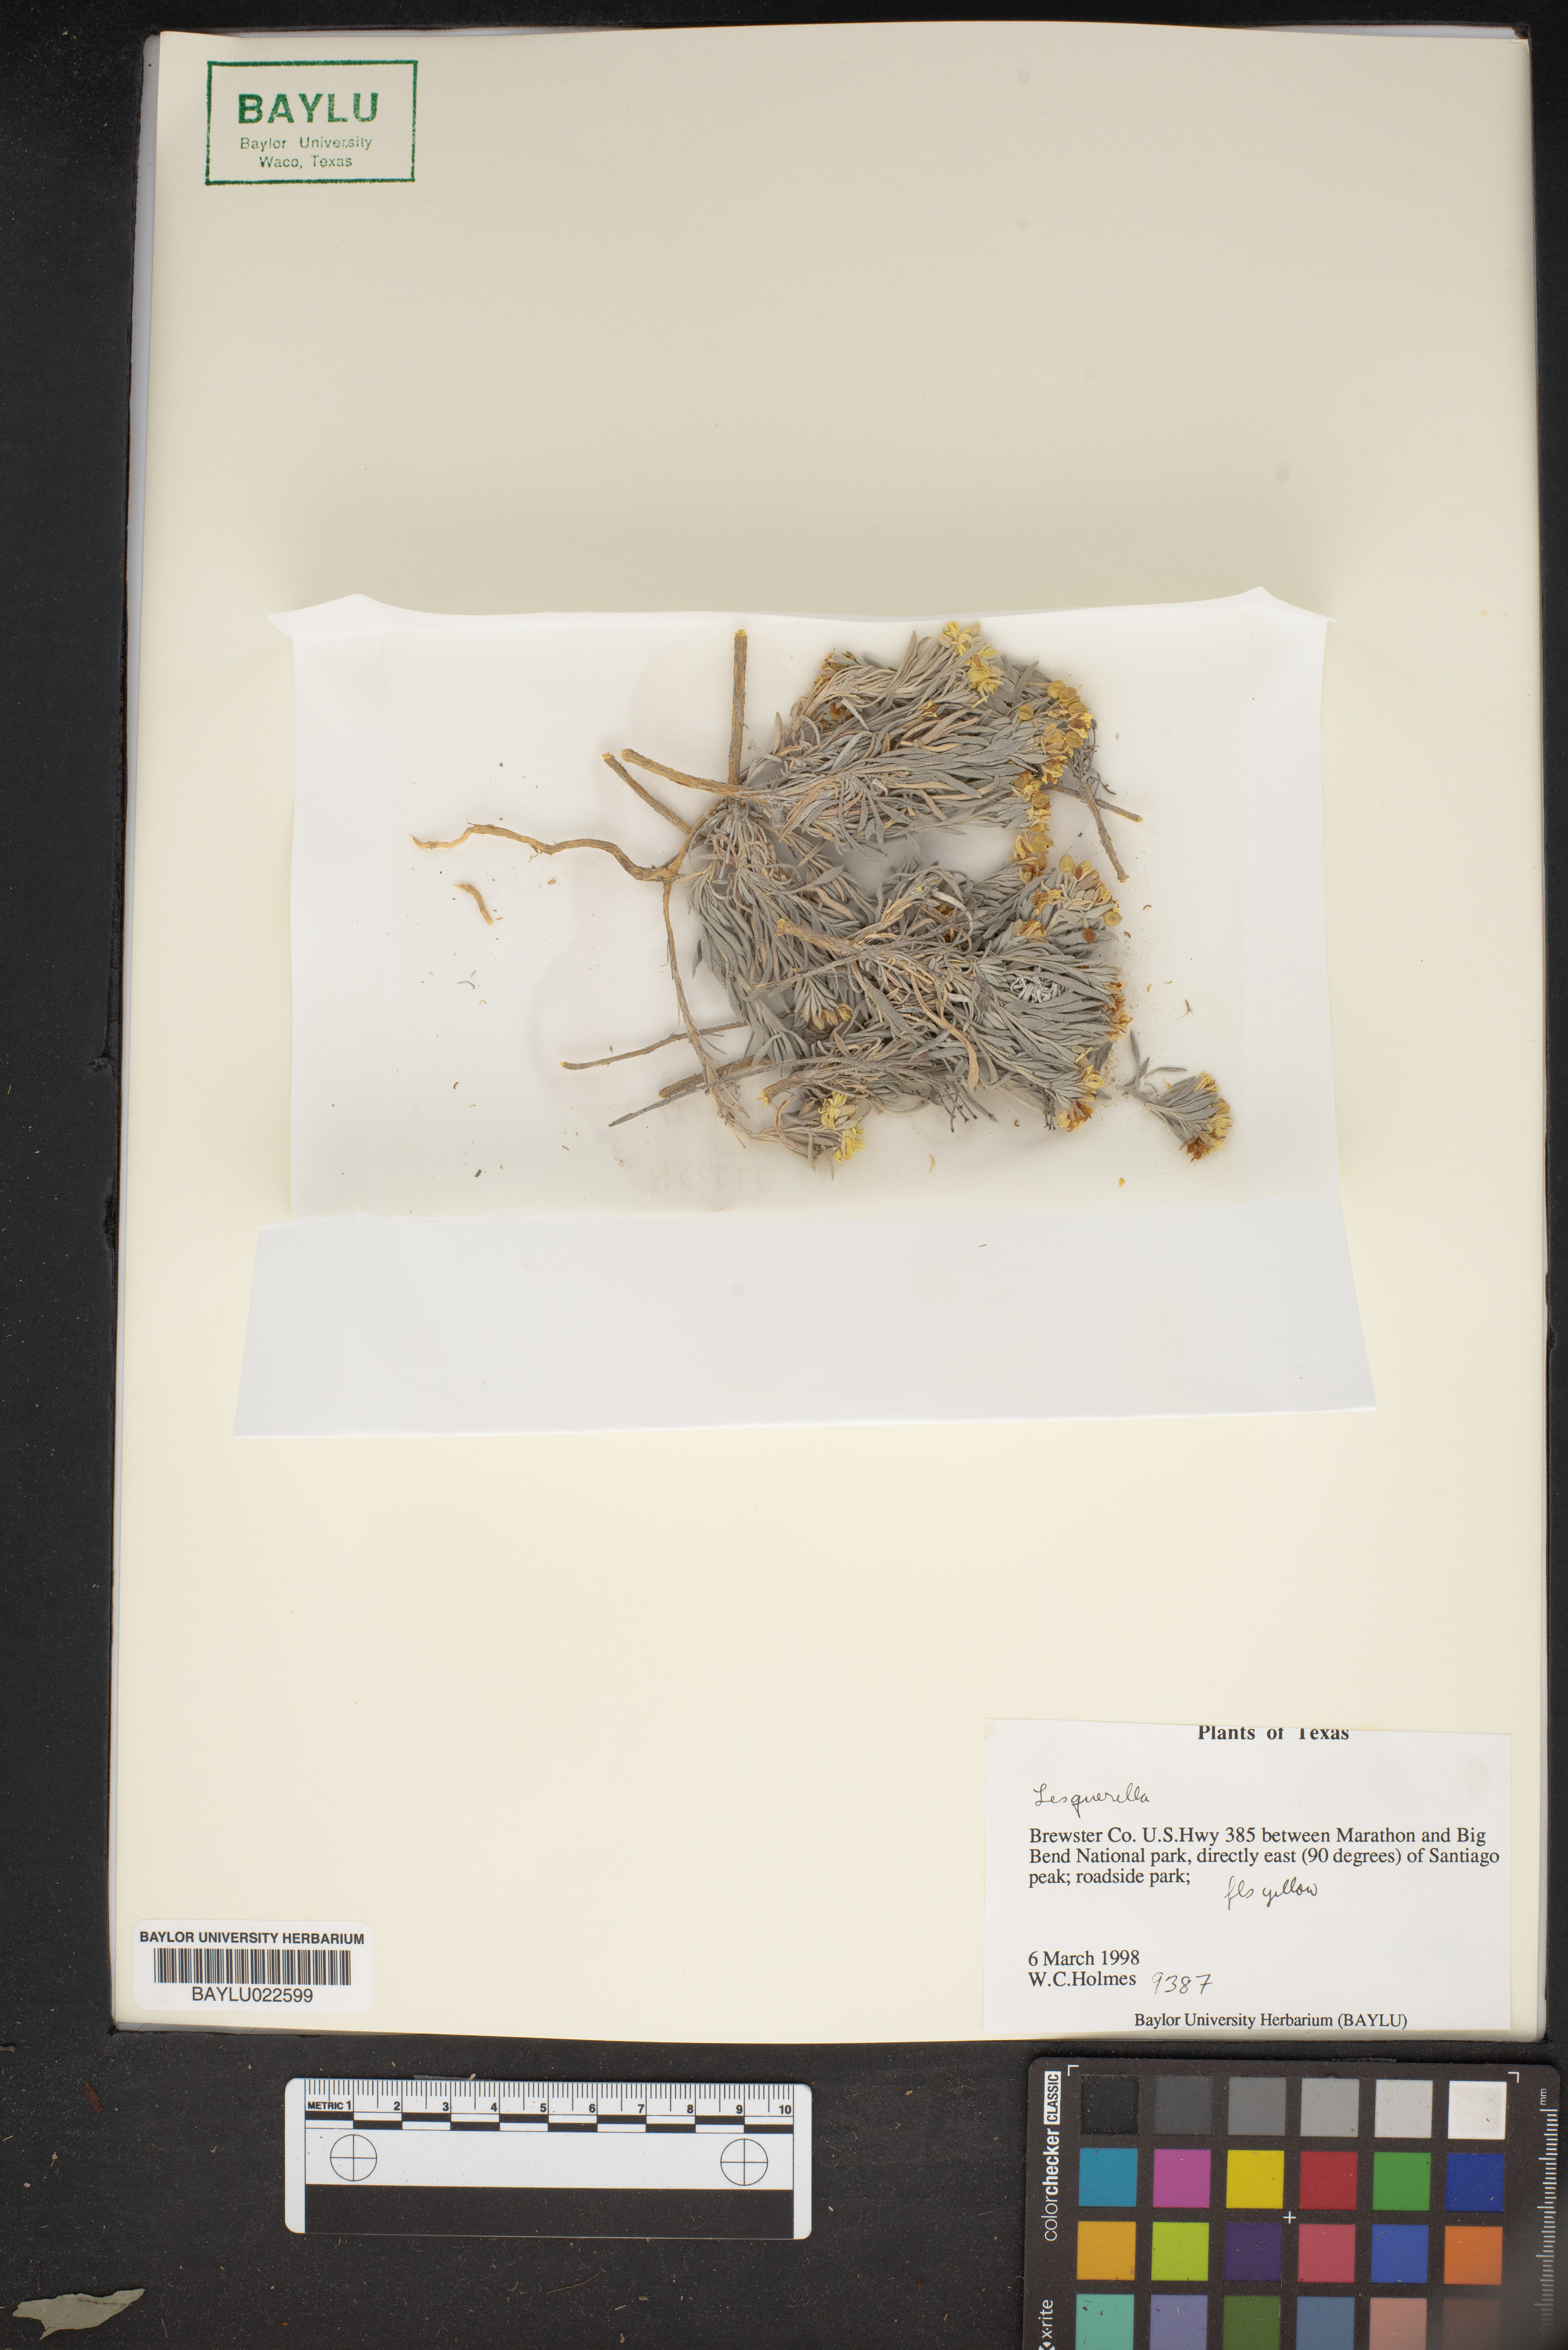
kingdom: Chromista
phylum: Cercozoa
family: Psammonobiotidae
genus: Lesquerella
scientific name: Lesquerella
